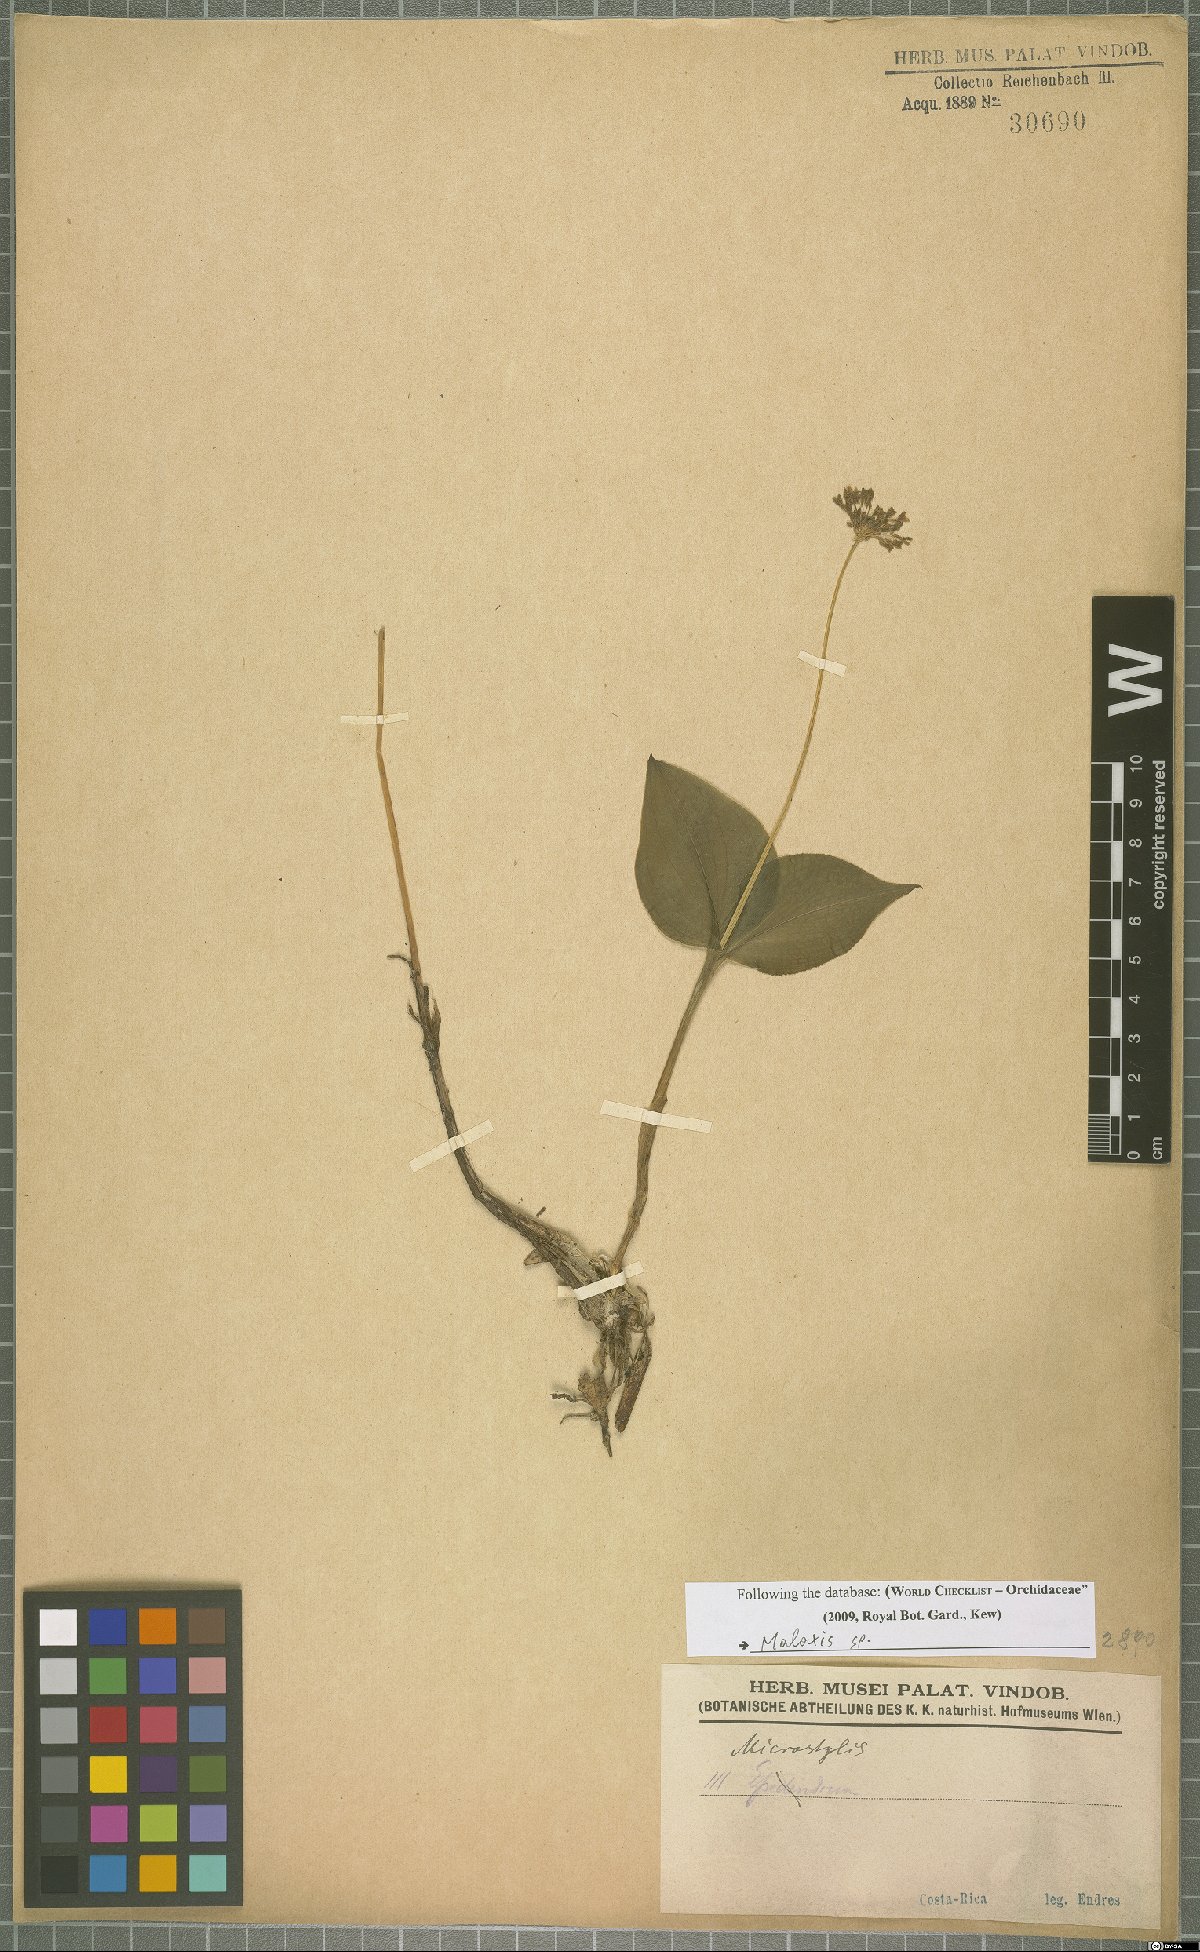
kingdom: Plantae
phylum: Tracheophyta
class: Liliopsida
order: Asparagales
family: Orchidaceae
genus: Malaxis
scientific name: Malaxis
